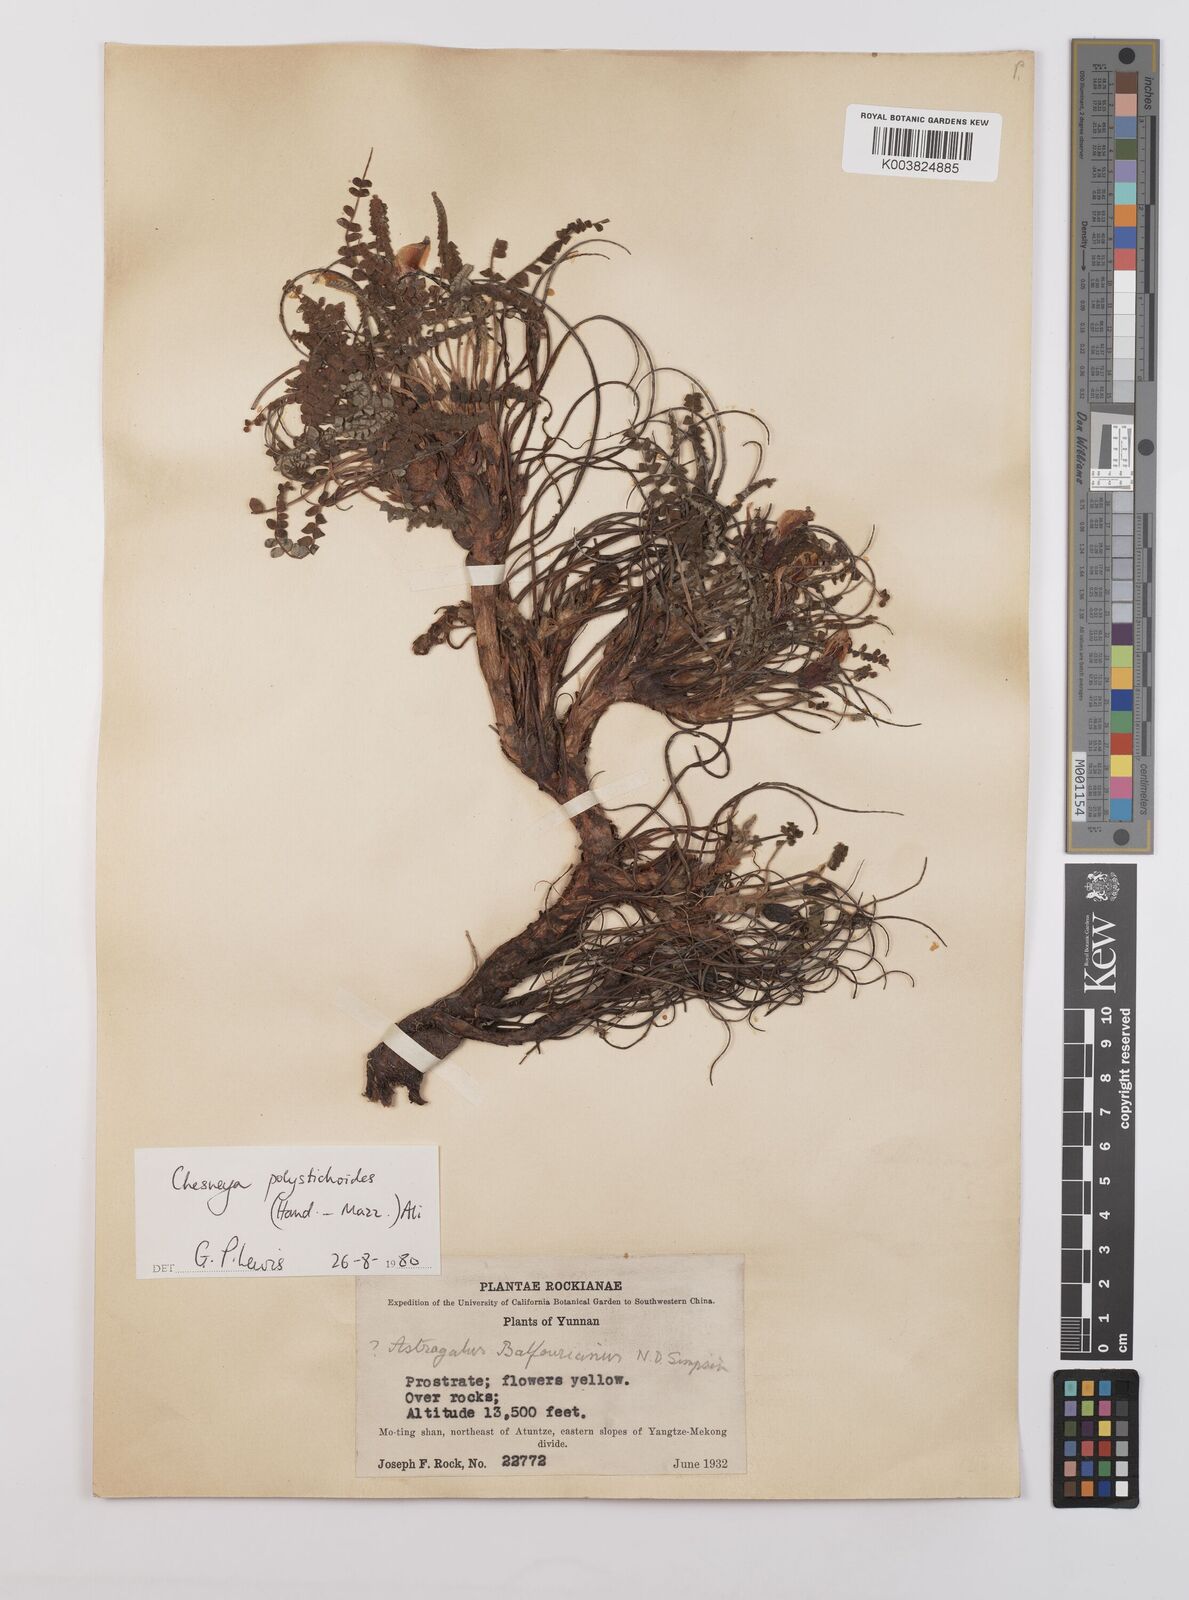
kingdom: Plantae
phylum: Tracheophyta
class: Magnoliopsida
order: Fabales
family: Fabaceae
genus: Chesneya
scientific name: Chesneya polystichoides
